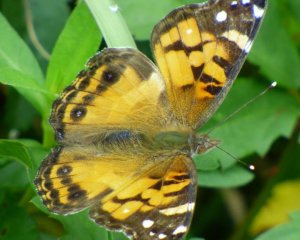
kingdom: Animalia
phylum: Arthropoda
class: Insecta
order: Lepidoptera
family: Nymphalidae
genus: Vanessa
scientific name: Vanessa virginiensis
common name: American Lady
